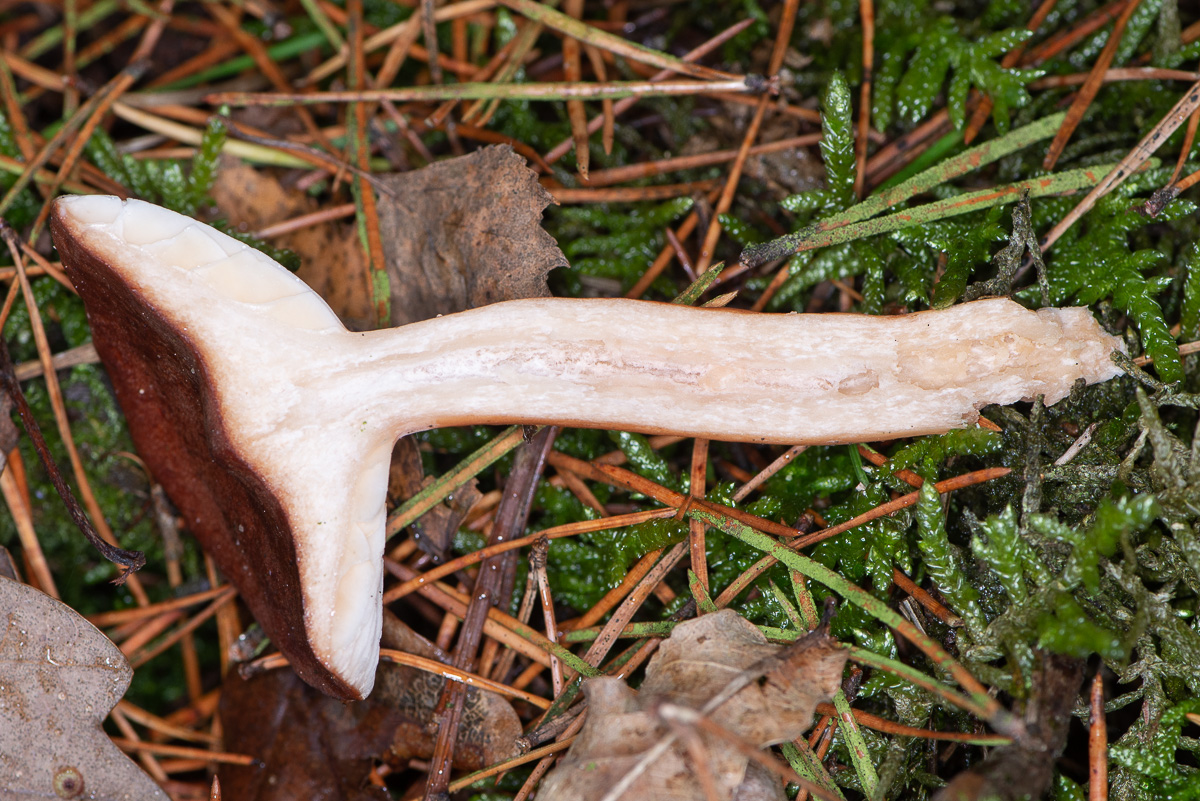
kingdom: Fungi
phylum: Basidiomycota
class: Agaricomycetes
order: Russulales
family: Russulaceae
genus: Lactarius
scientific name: Lactarius rufus
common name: rødbrun mælkehat
